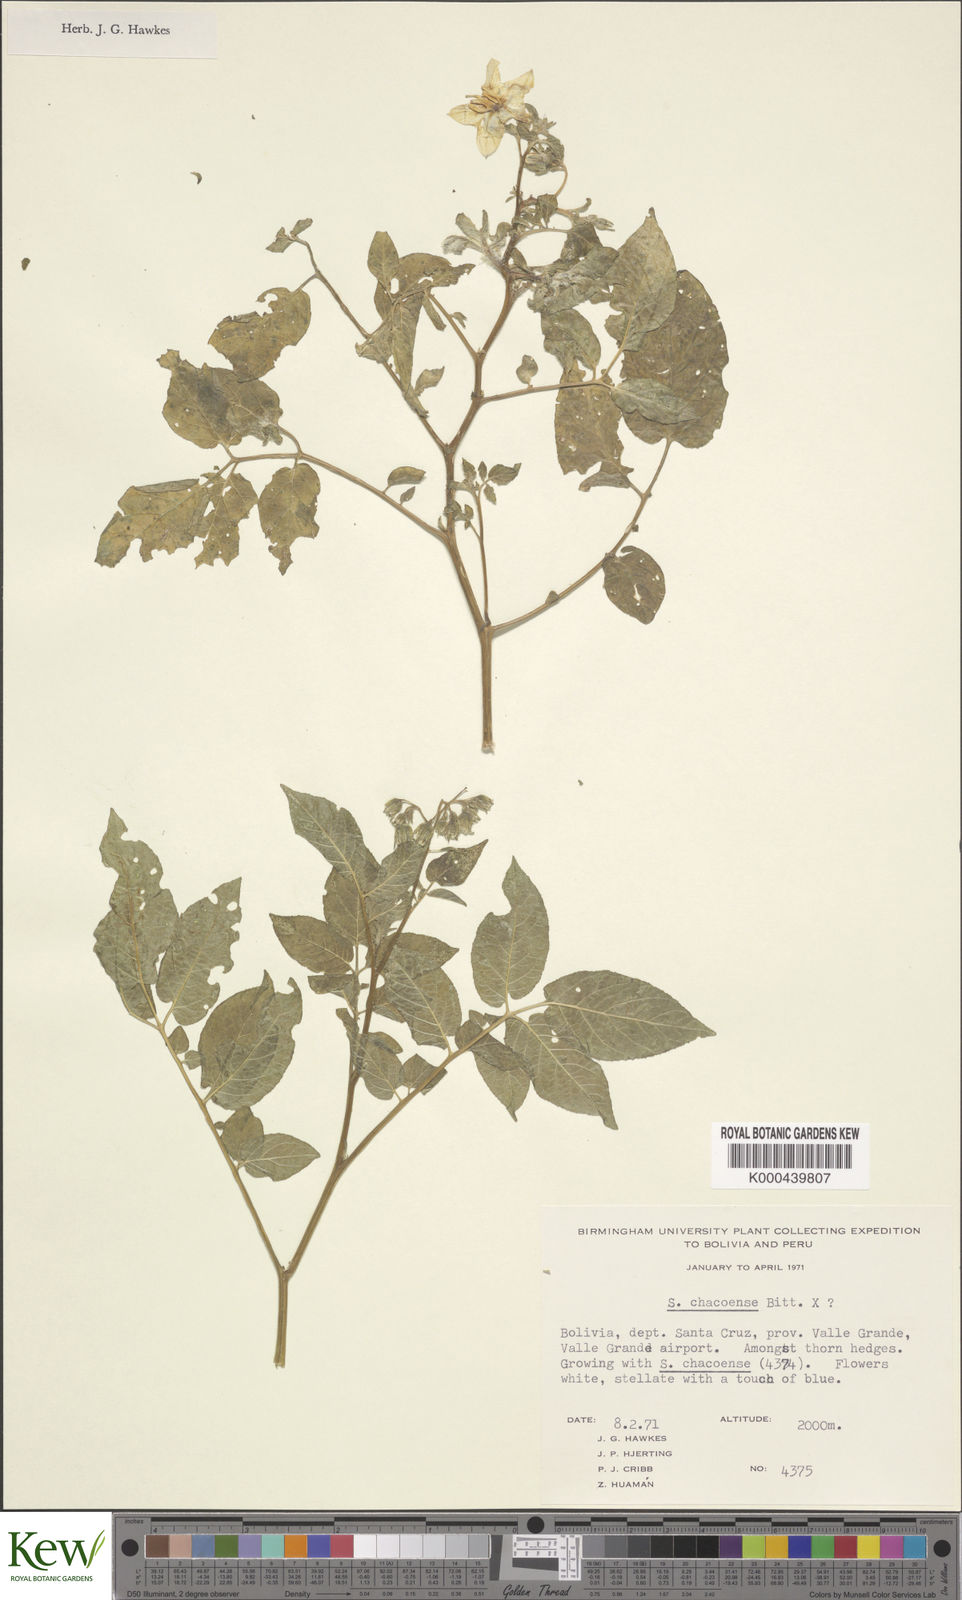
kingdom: Plantae
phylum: Tracheophyta
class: Magnoliopsida
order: Solanales
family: Solanaceae
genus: Solanum
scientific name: Solanum chacoense
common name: Chaco potato
